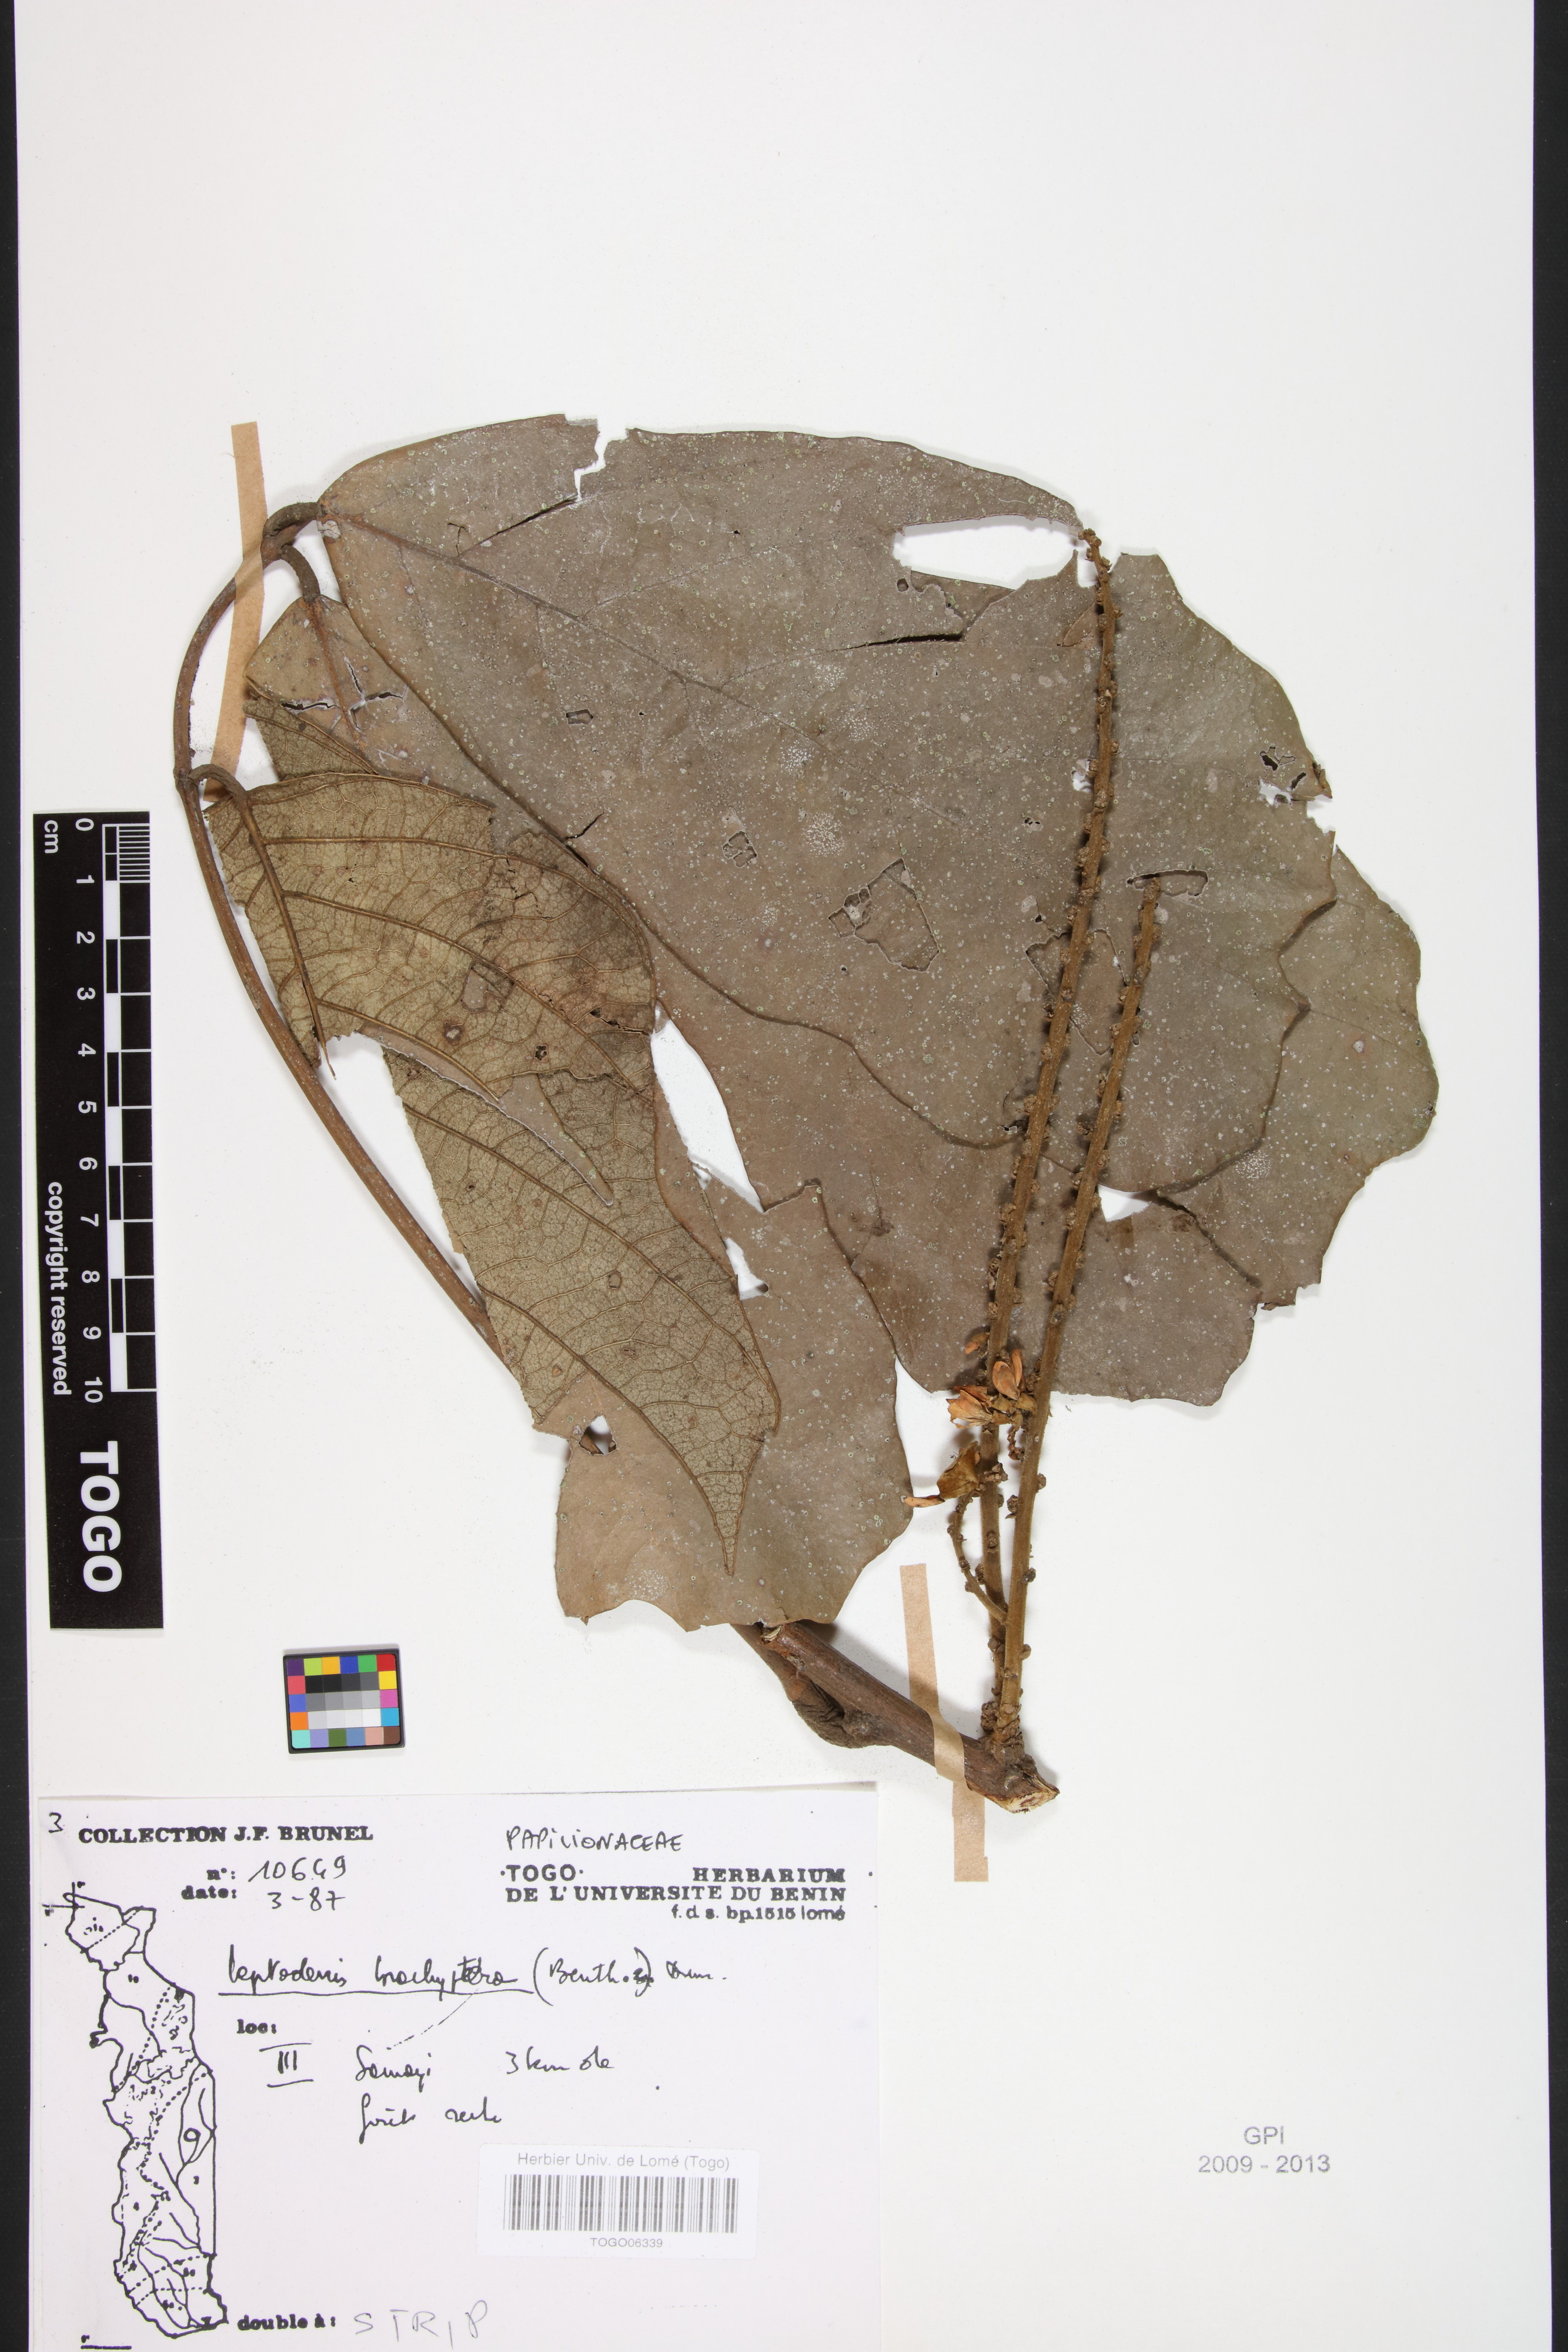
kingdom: Plantae
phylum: Tracheophyta
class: Magnoliopsida
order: Fabales
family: Fabaceae
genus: Leptoderris
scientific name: Leptoderris brachyptera
